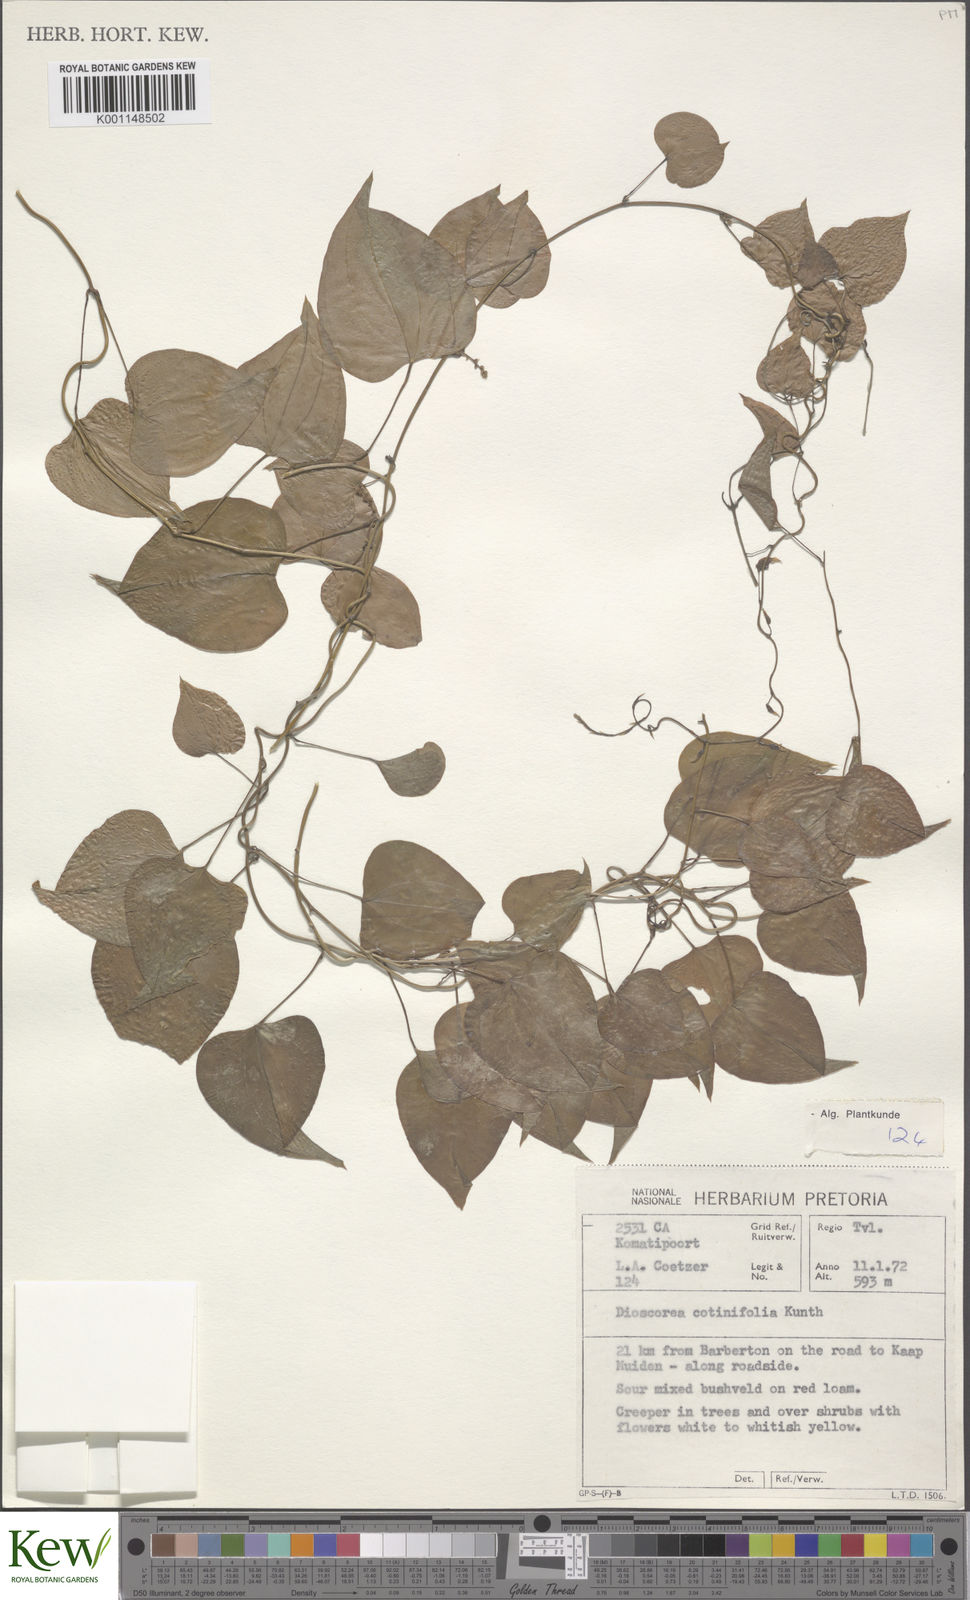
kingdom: Plantae
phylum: Tracheophyta
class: Liliopsida
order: Dioscoreales
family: Dioscoreaceae
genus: Dioscorea
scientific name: Dioscorea cotinifolia
